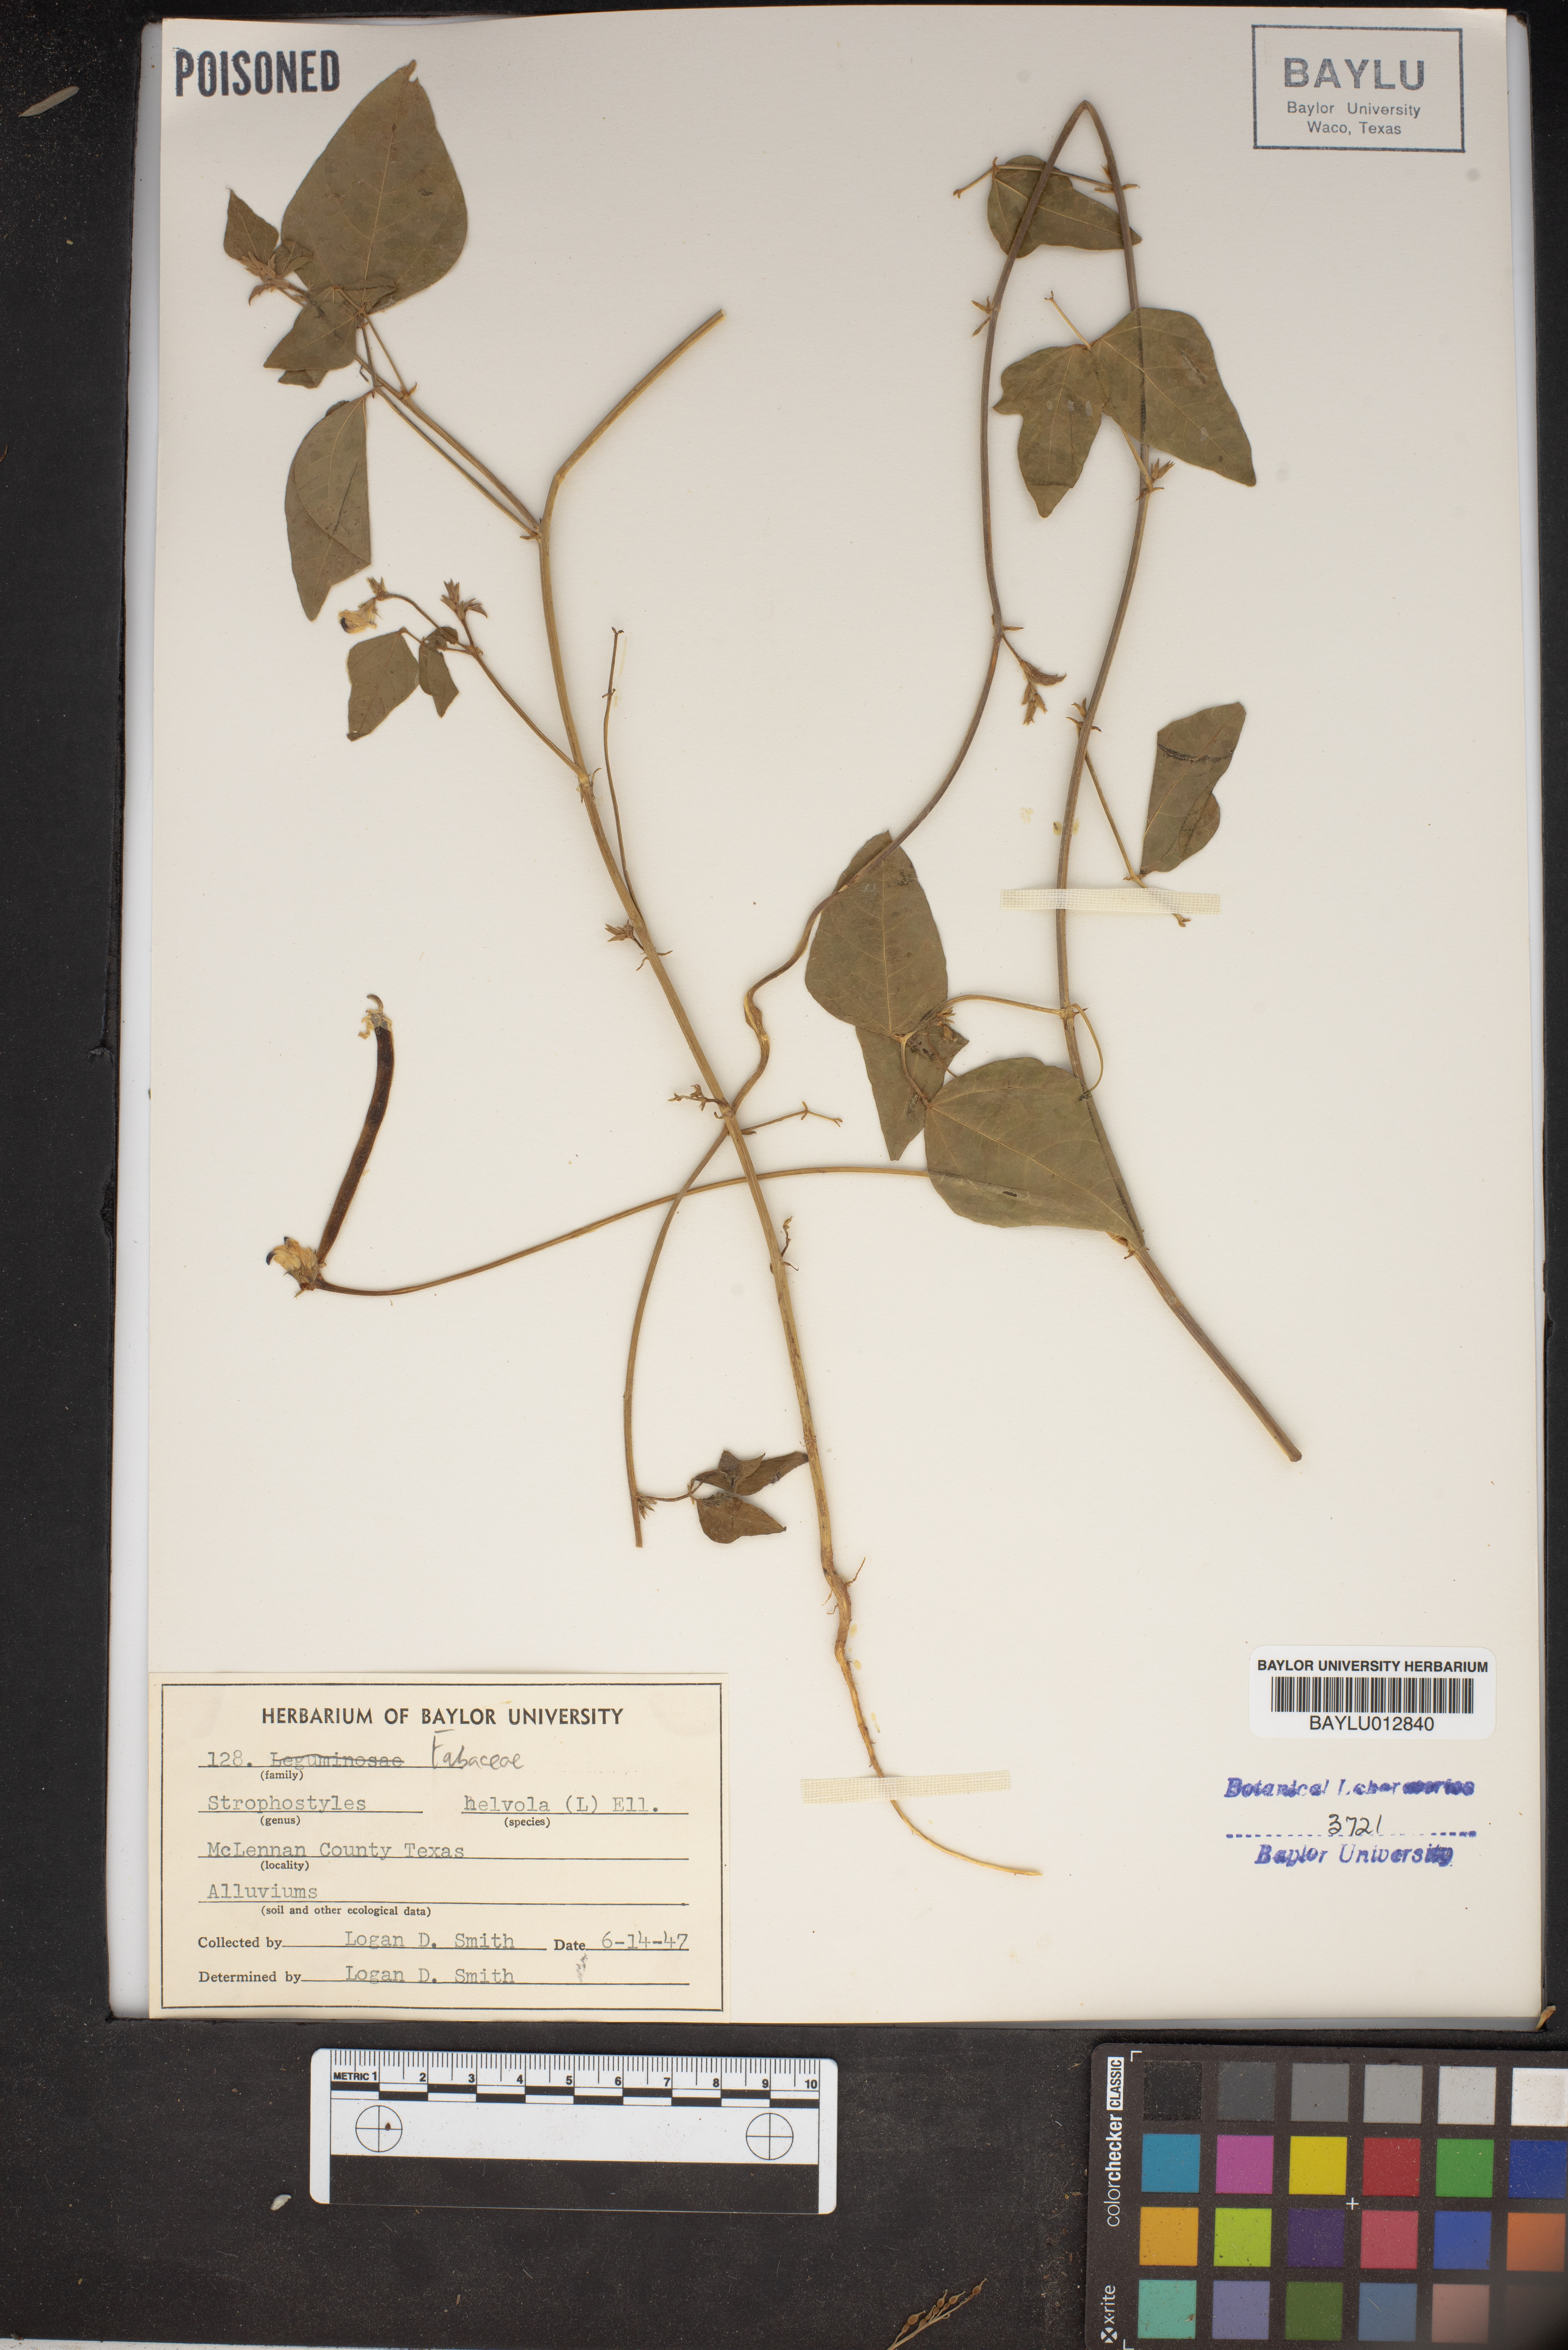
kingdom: Plantae
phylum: Tracheophyta
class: Magnoliopsida
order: Fabales
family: Fabaceae
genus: Strophostyles
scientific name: Strophostyles helvola
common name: Trailing wild bean
